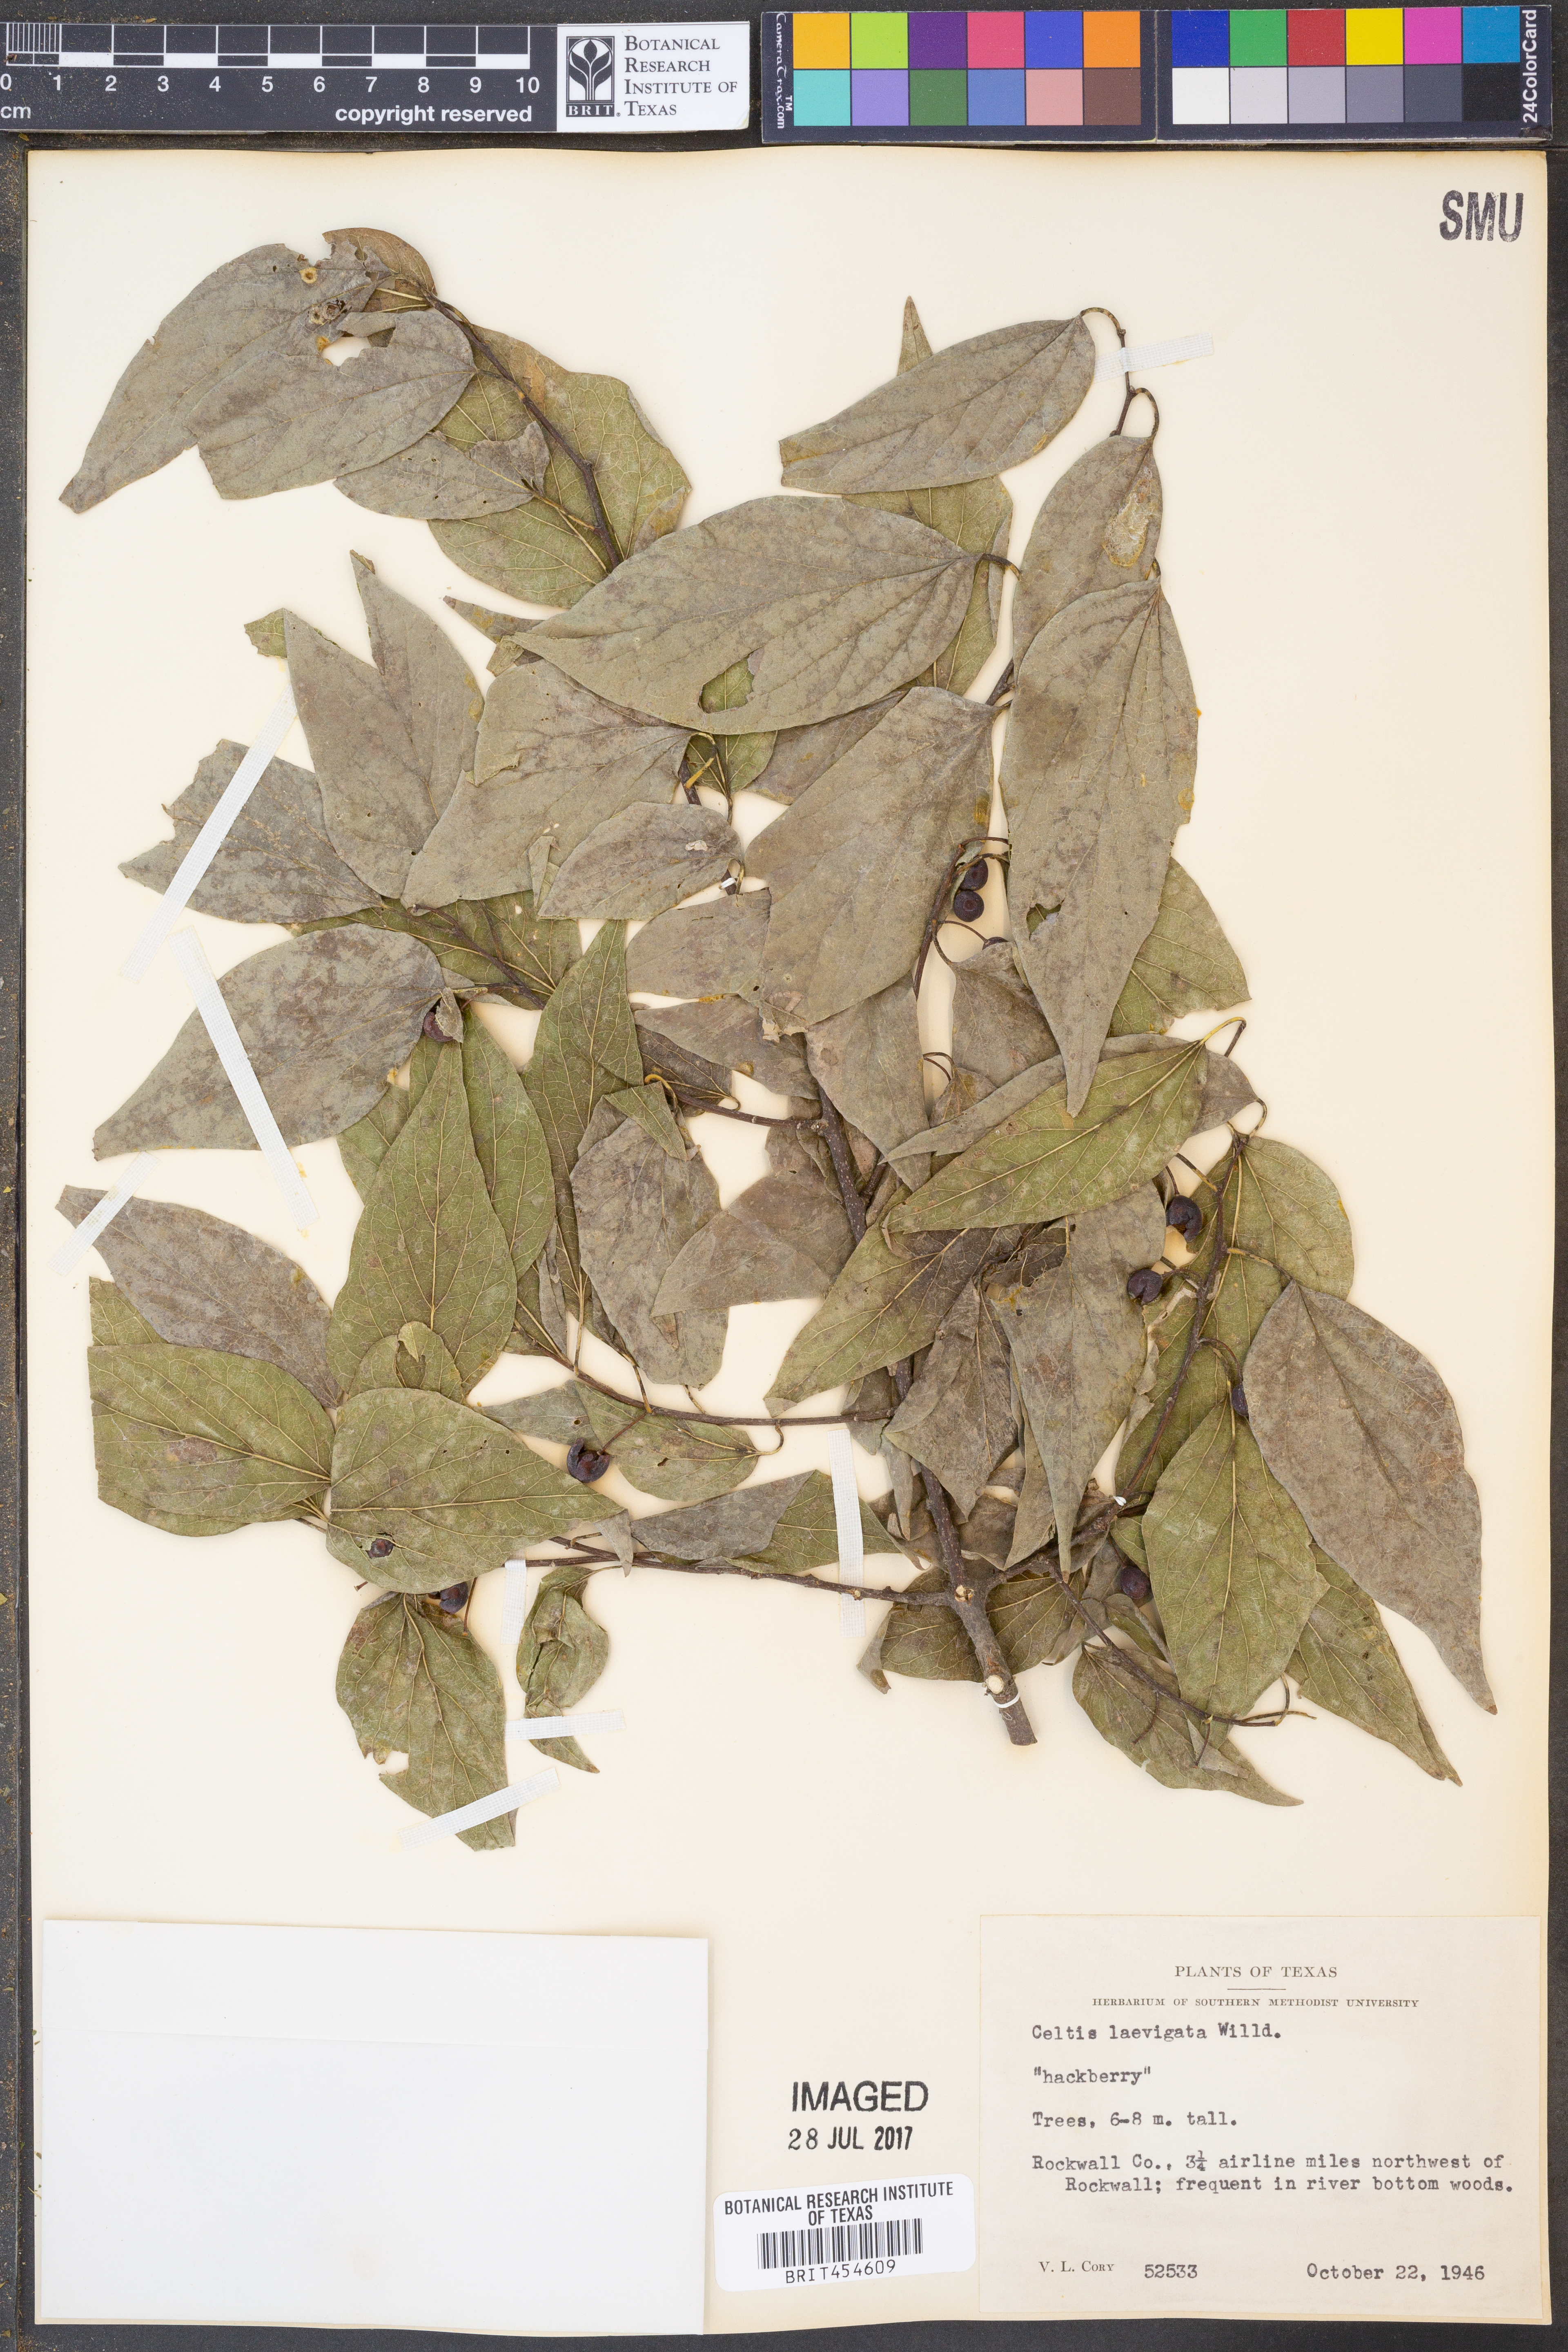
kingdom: Plantae
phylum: Tracheophyta
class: Magnoliopsida
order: Rosales
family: Cannabaceae
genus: Celtis
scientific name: Celtis laevigata
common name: Sugarberry
